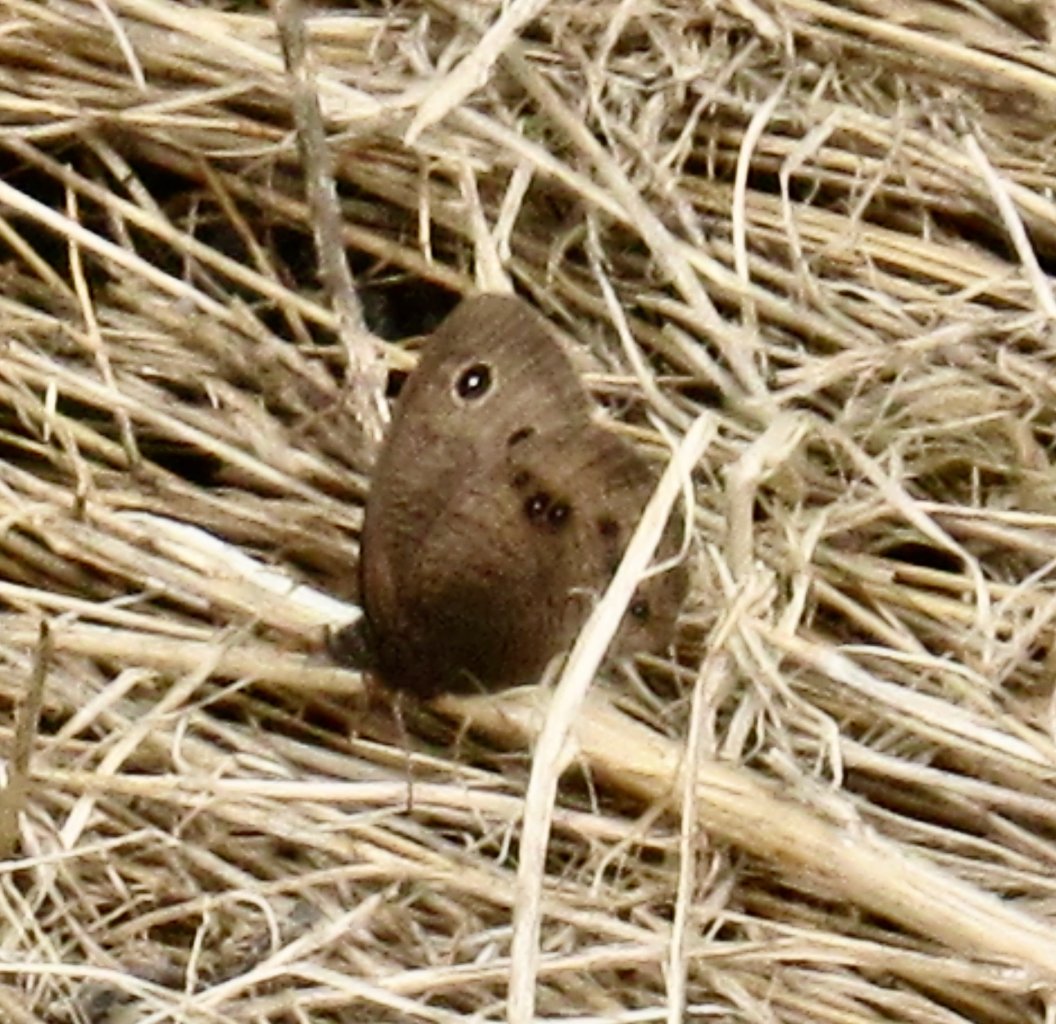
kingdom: Animalia
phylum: Arthropoda
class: Insecta
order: Lepidoptera
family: Nymphalidae
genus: Cercyonis
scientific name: Cercyonis pegala
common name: Common Wood-Nymph
